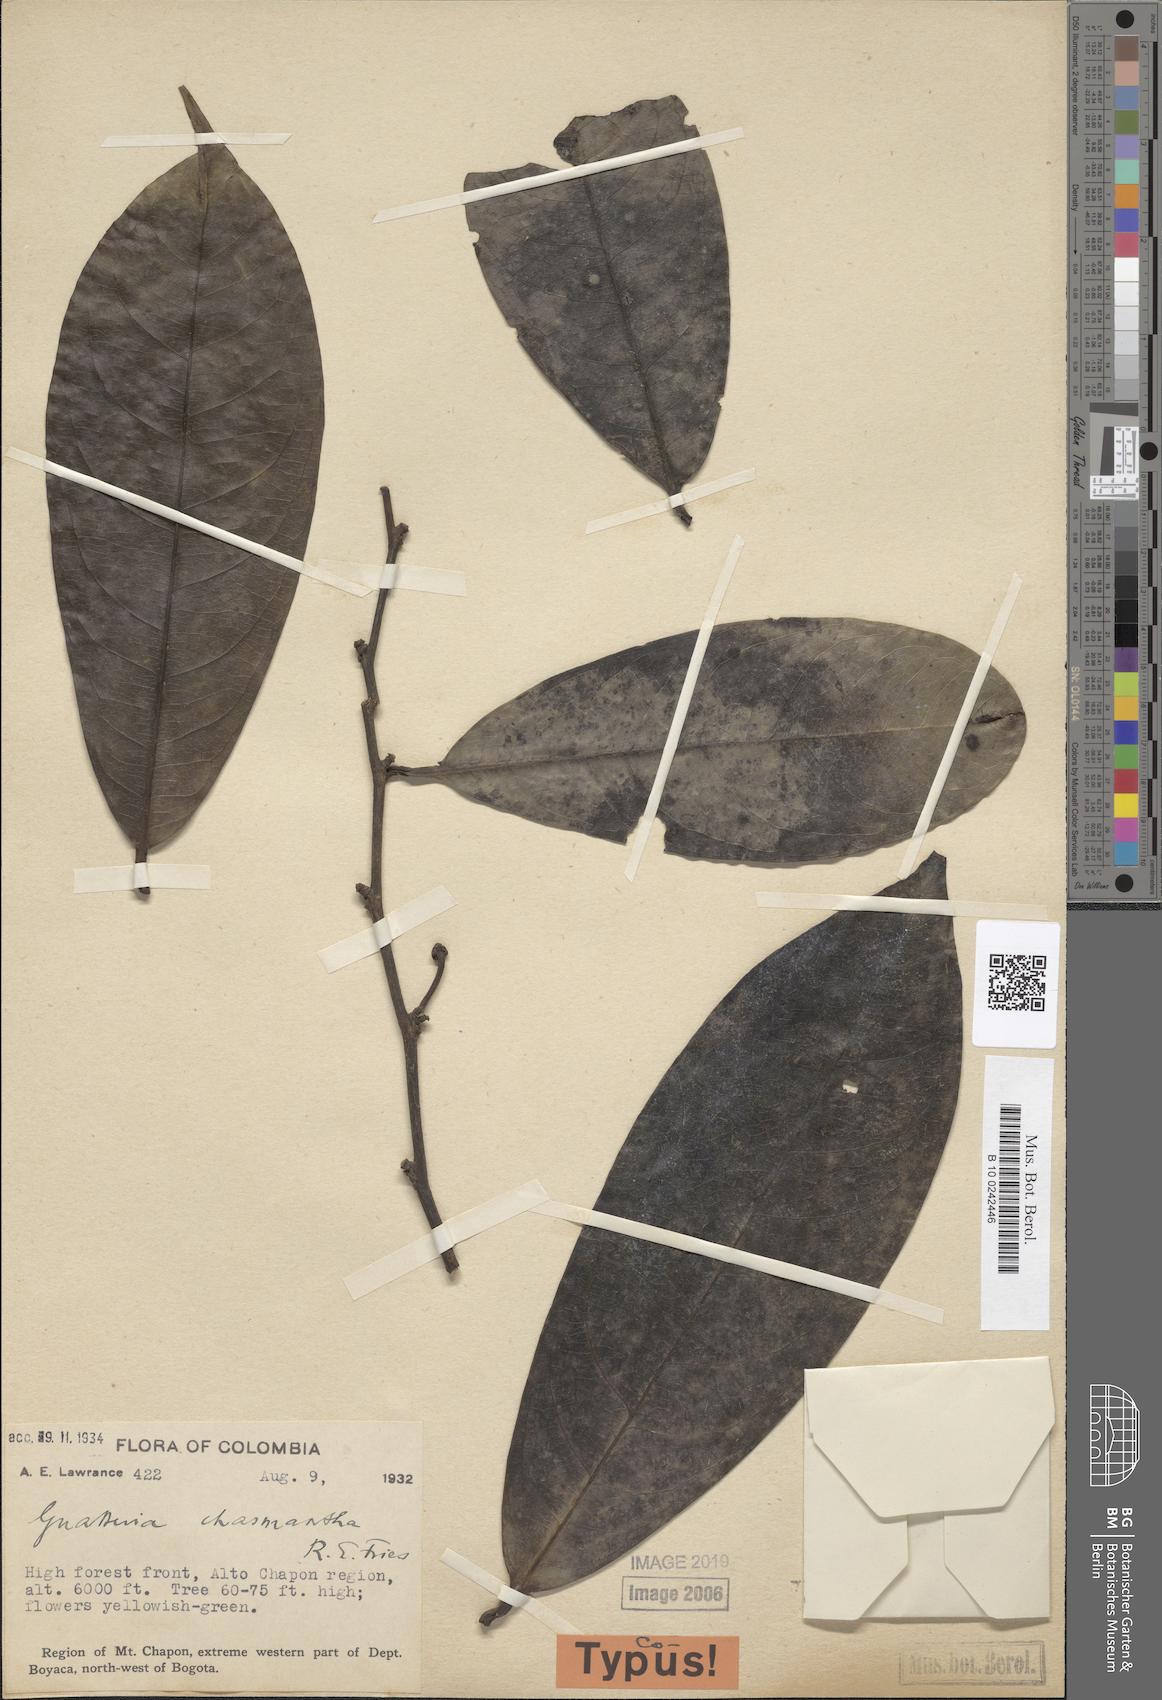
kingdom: Plantae
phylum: Tracheophyta
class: Magnoliopsida
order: Magnoliales
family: Annonaceae
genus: Guatteria
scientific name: Guatteria chasmantha
